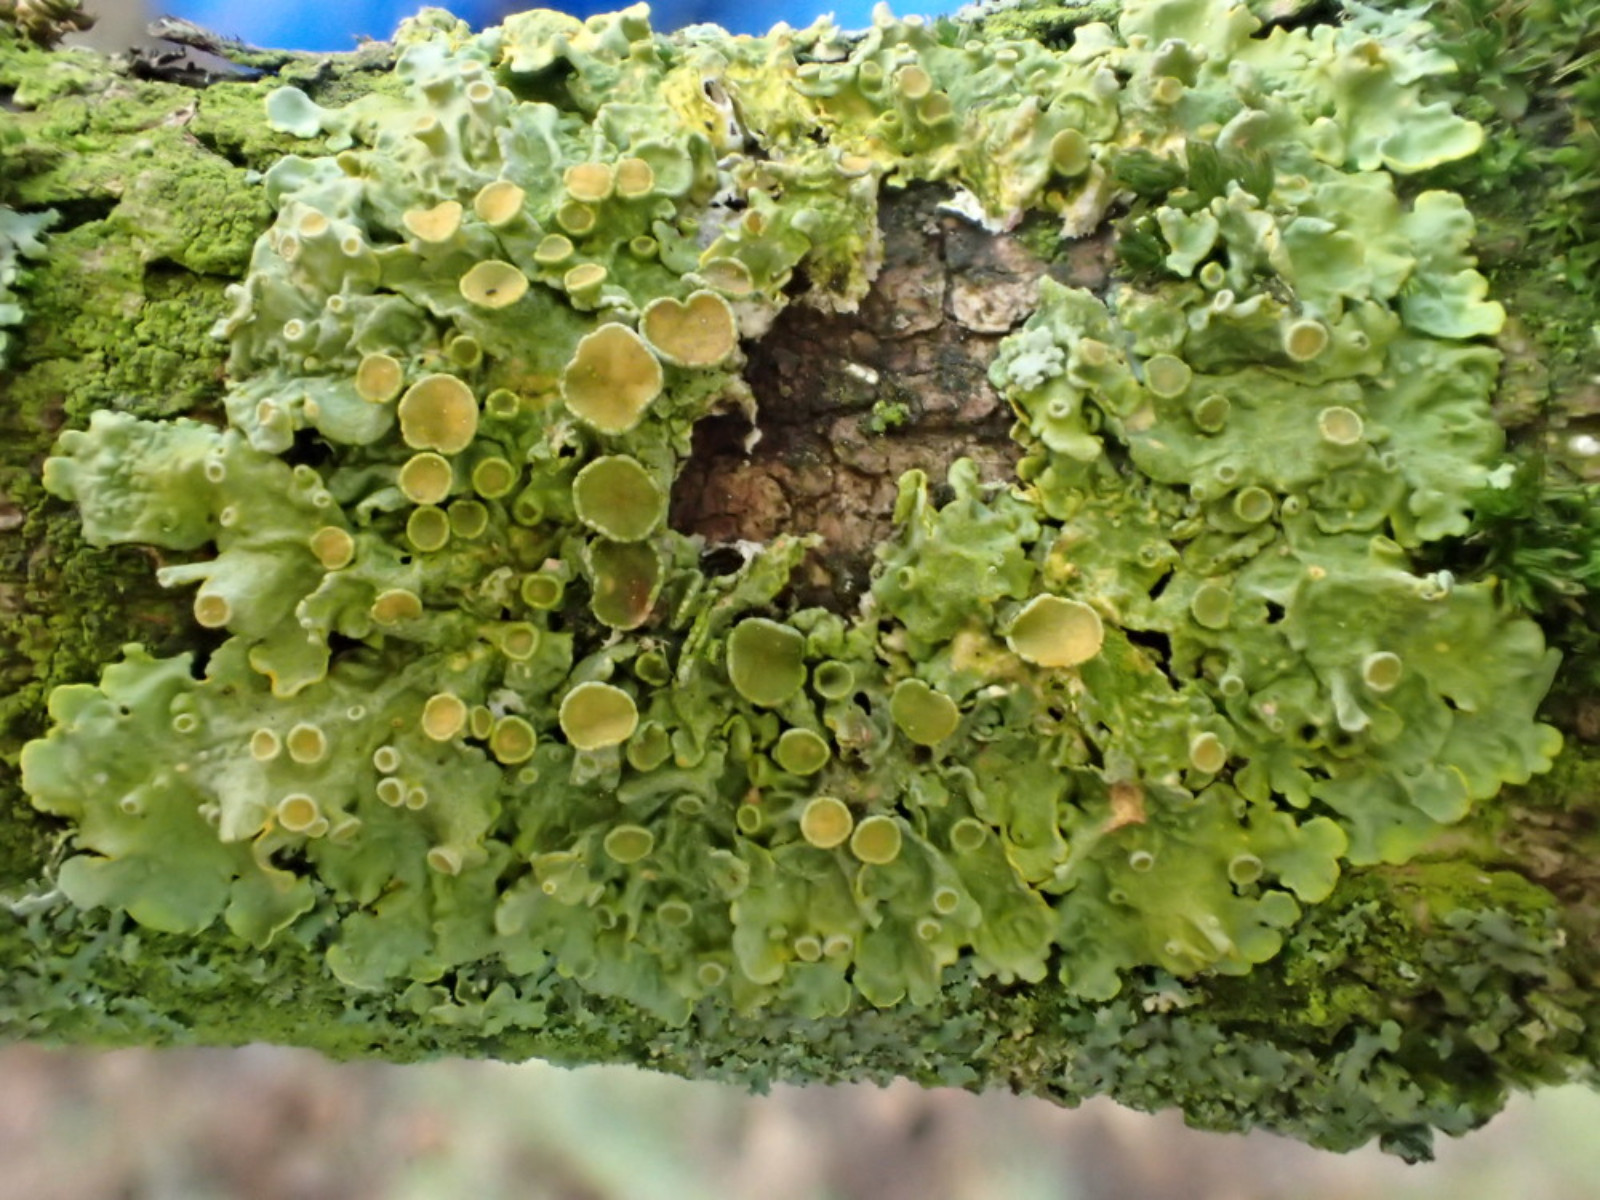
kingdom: Fungi
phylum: Ascomycota
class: Lecanoromycetes
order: Teloschistales
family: Teloschistaceae
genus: Xanthoria
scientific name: Xanthoria parietina
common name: almindelig væggelav
